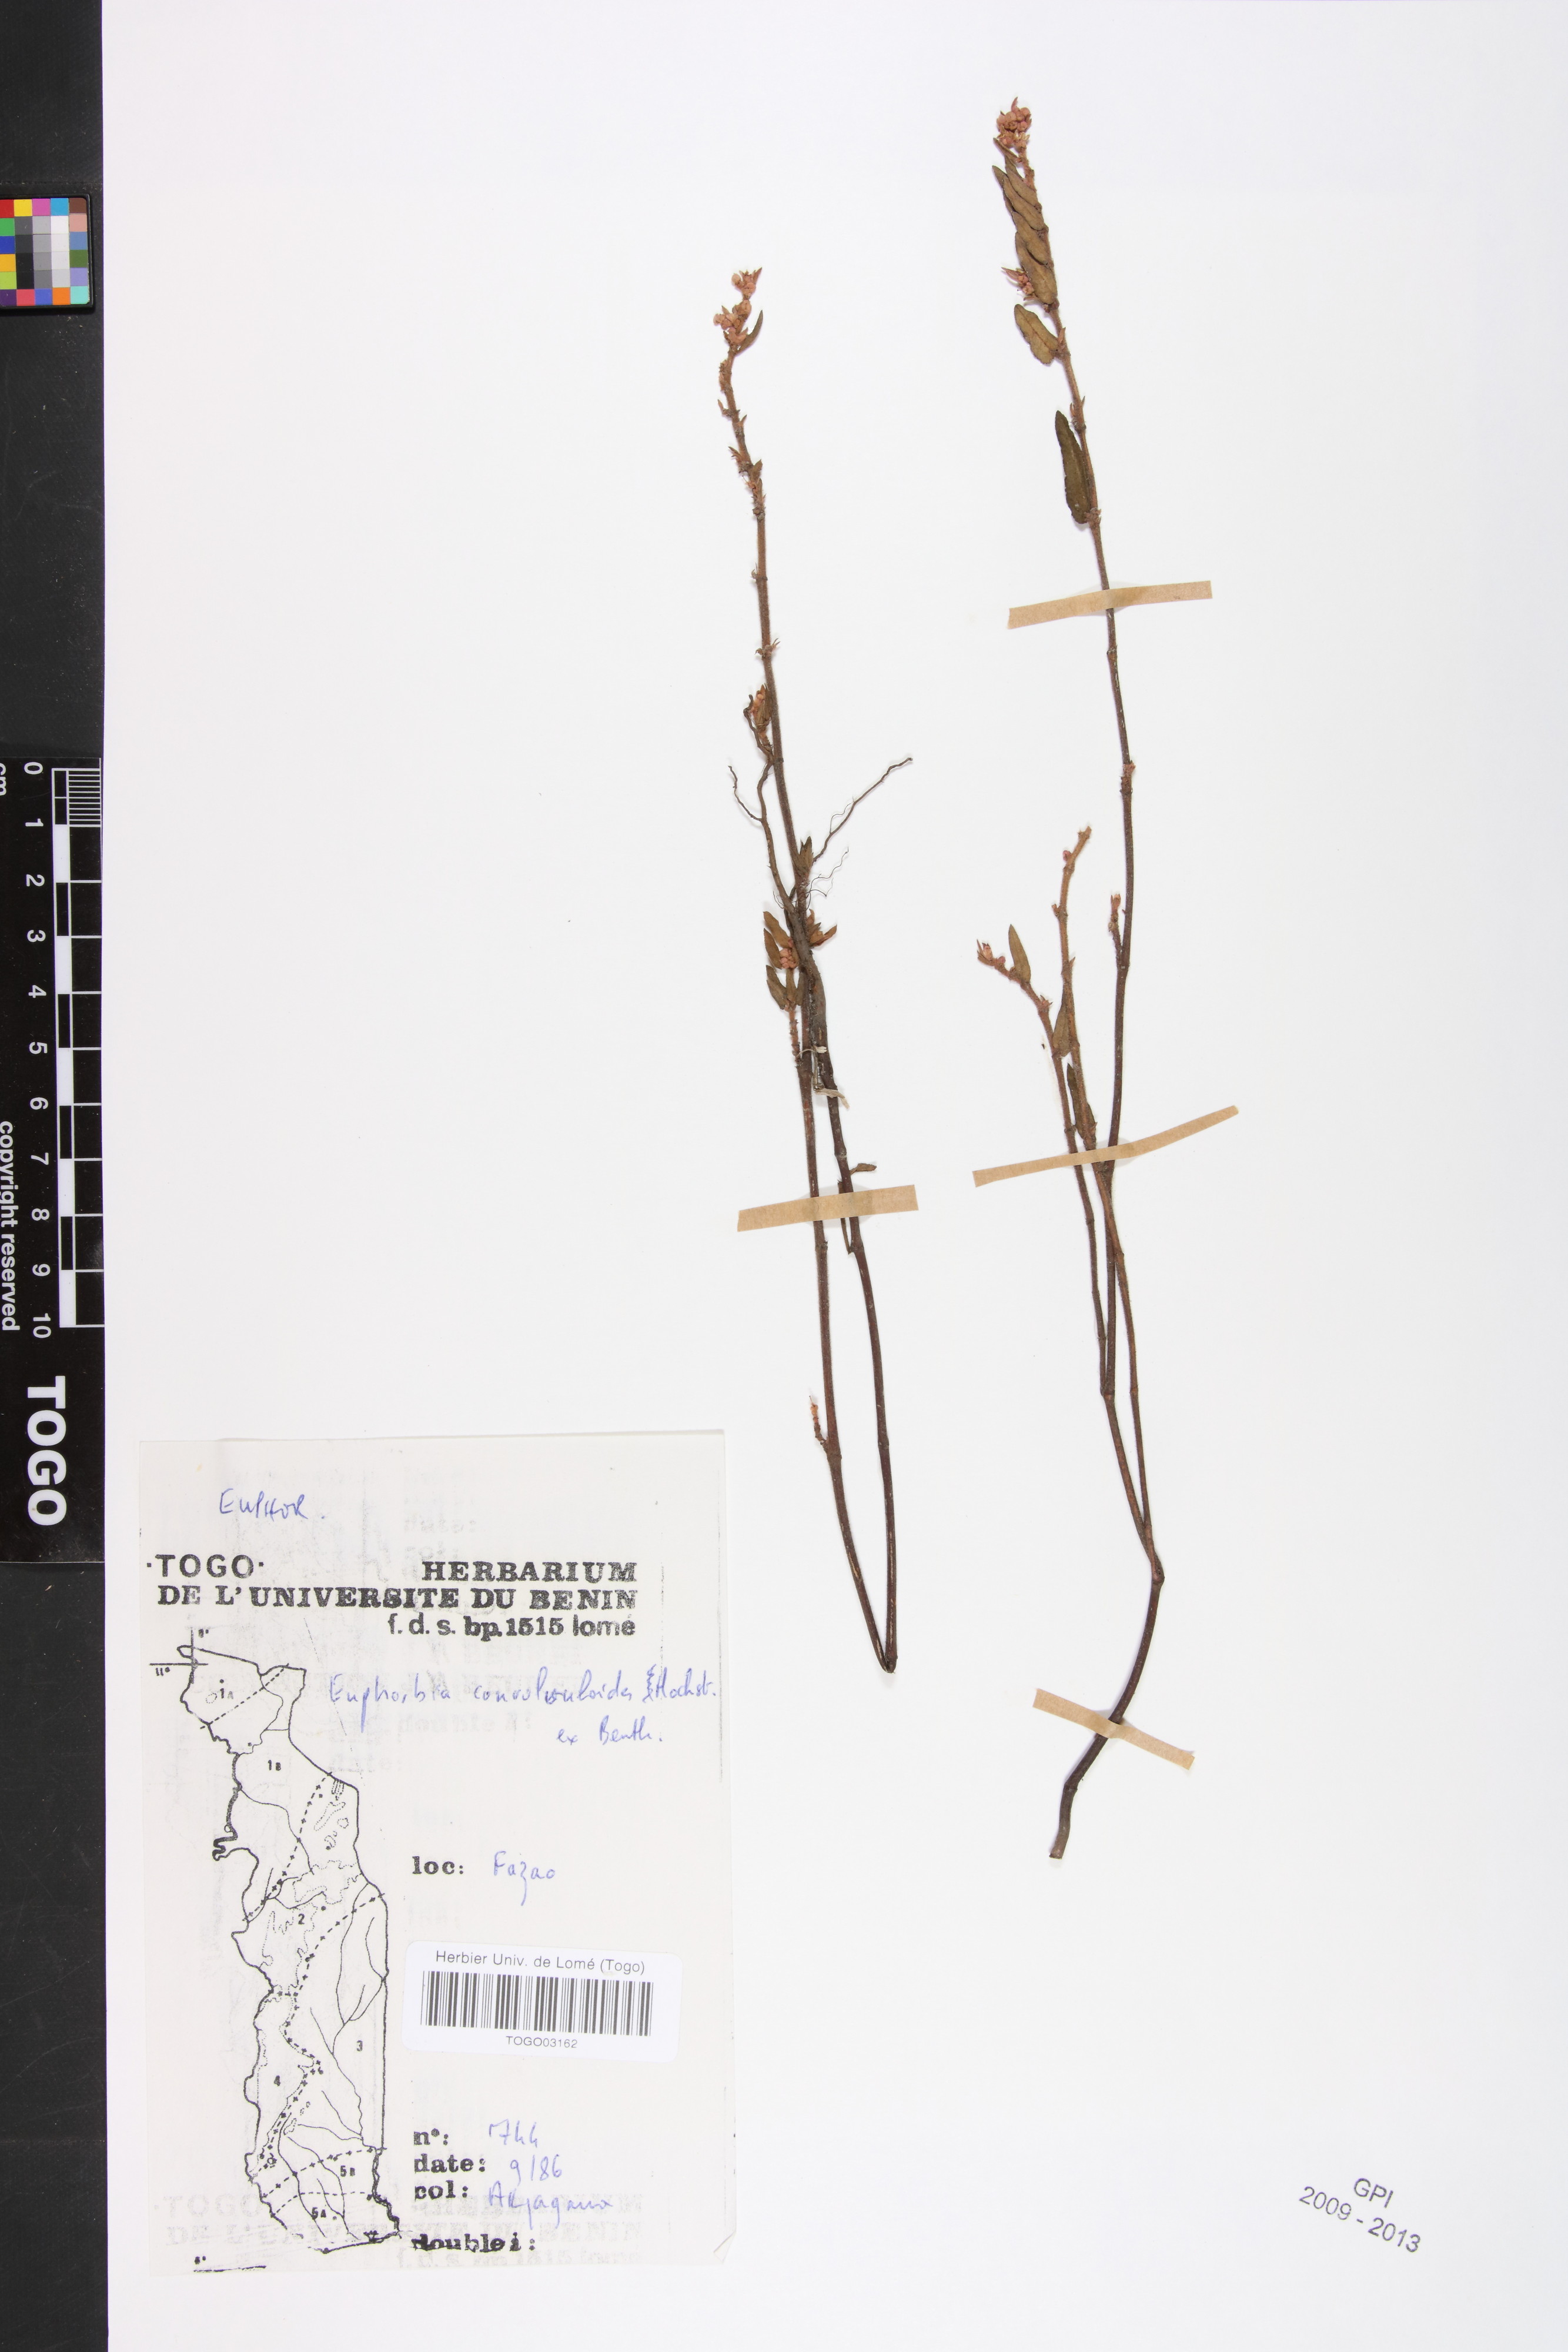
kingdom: Plantae
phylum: Tracheophyta
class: Magnoliopsida
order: Malpighiales
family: Euphorbiaceae
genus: Euphorbia
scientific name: Euphorbia convolvuloides
